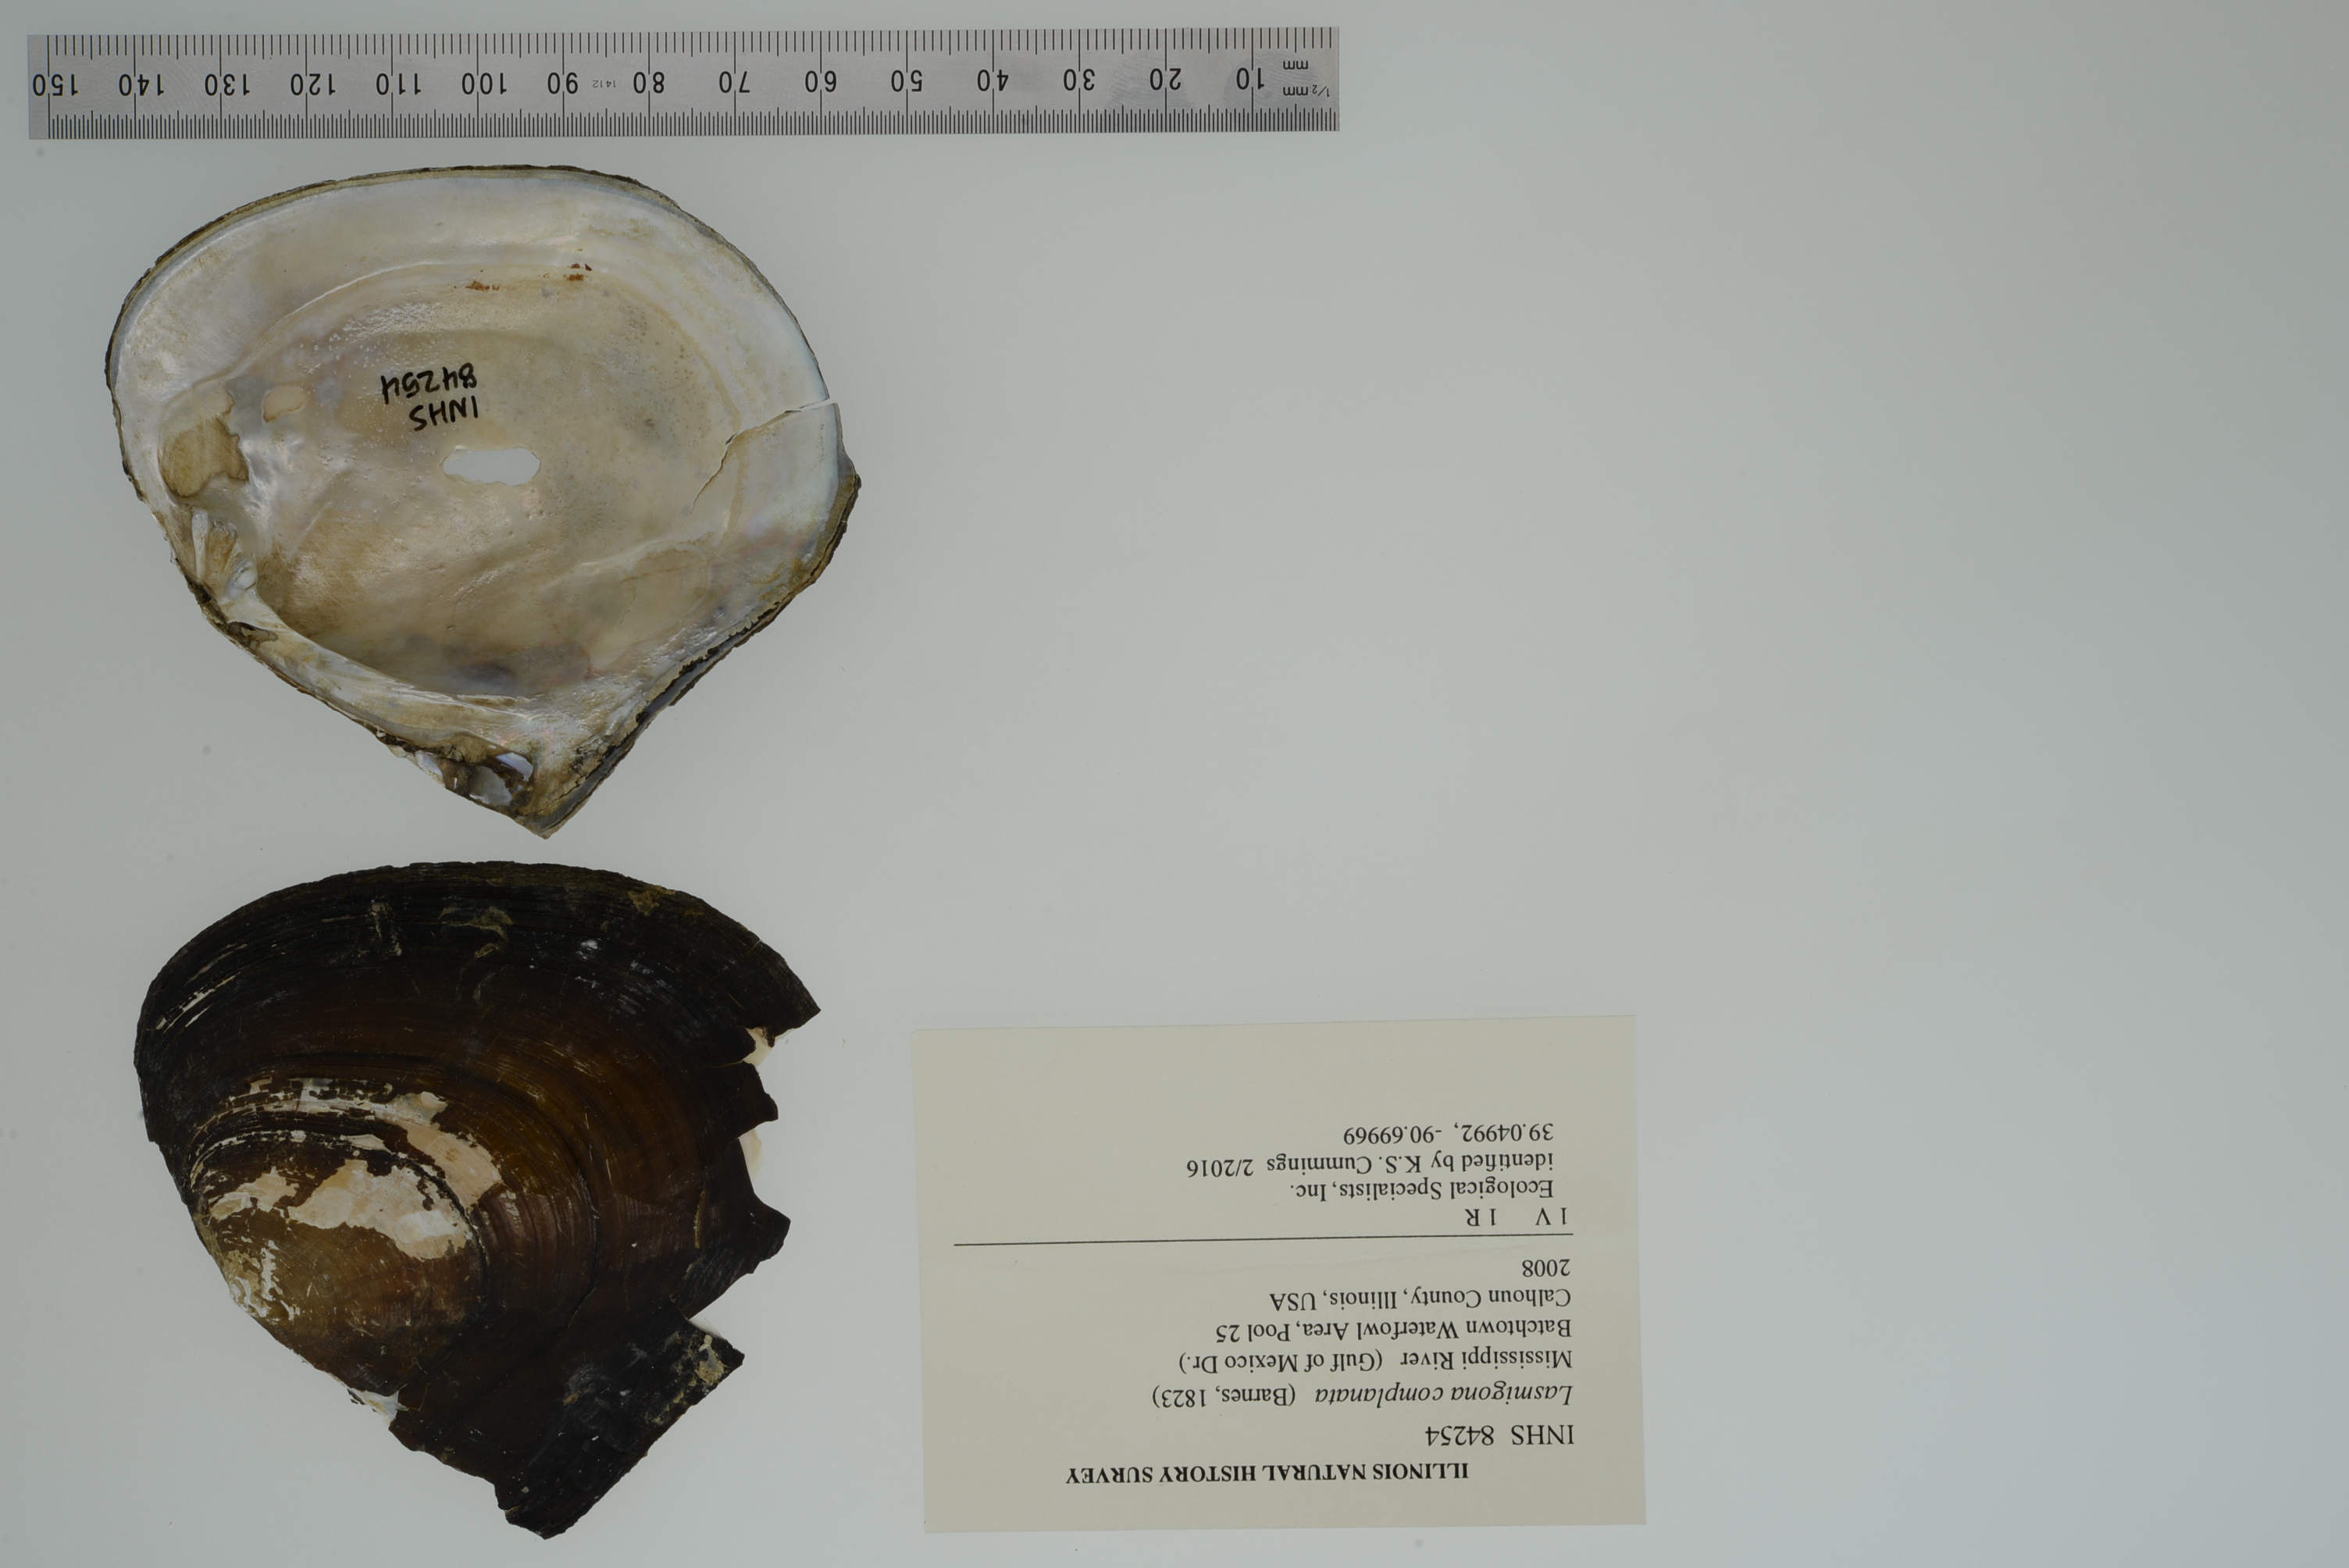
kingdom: Animalia
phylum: Mollusca
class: Bivalvia
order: Unionida
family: Unionidae
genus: Lasmigona
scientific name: Lasmigona complanata
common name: White heelsplitter
